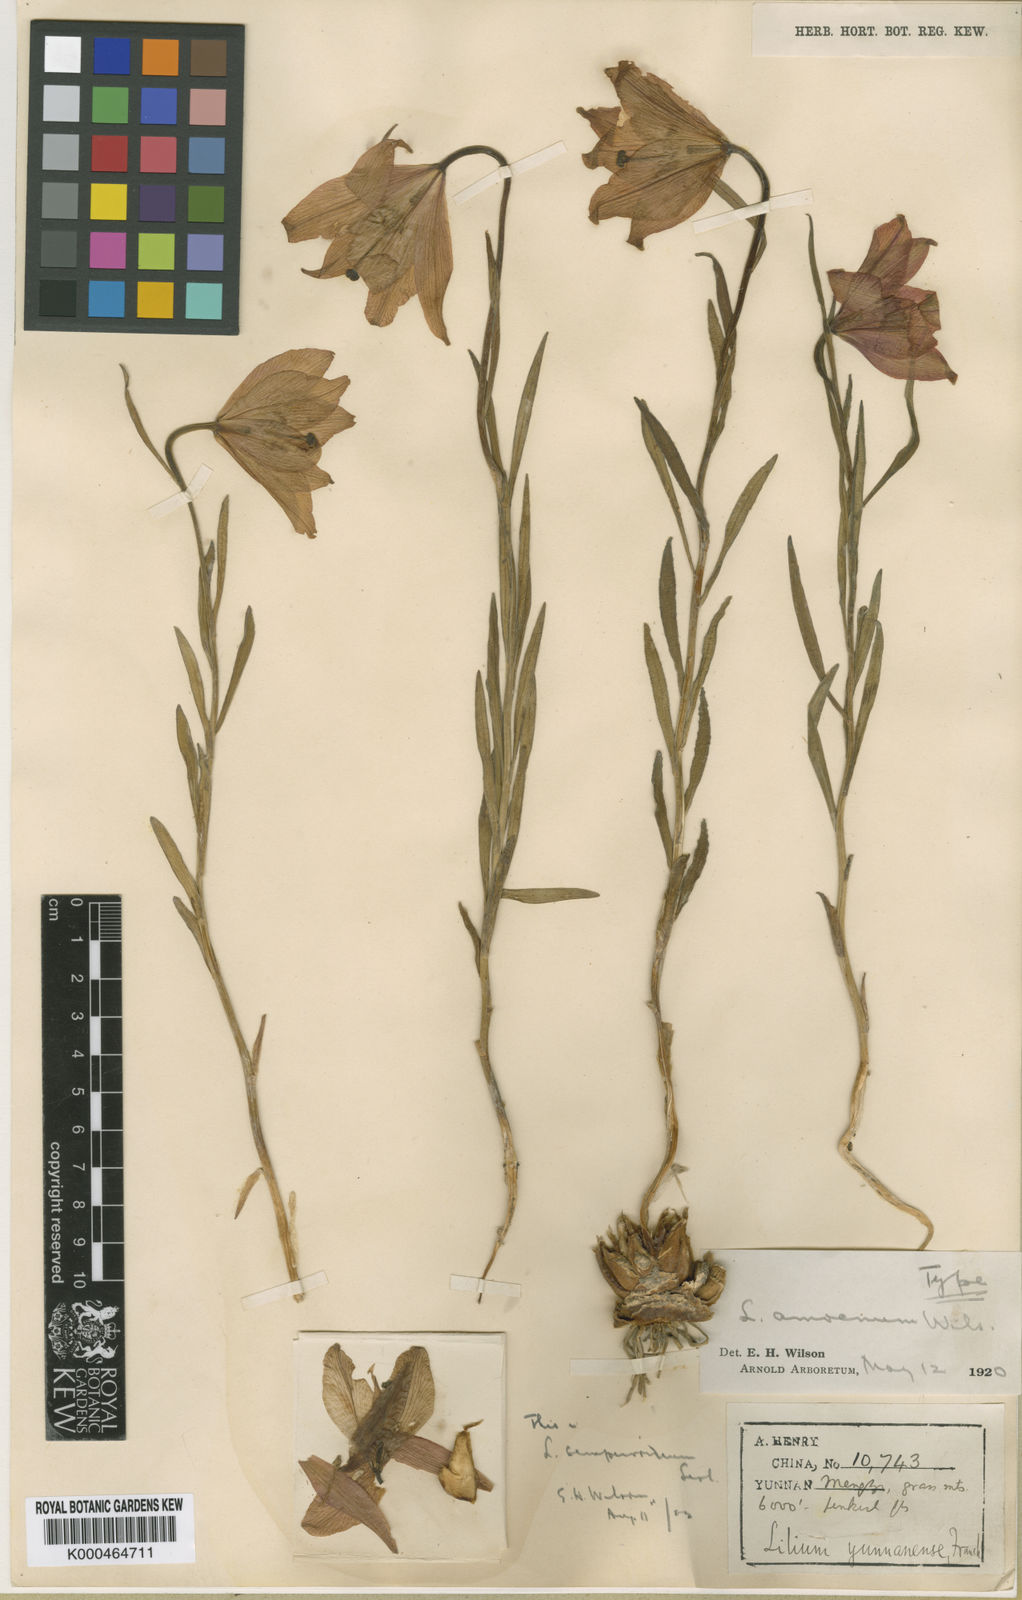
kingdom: Plantae
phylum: Tracheophyta
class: Liliopsida
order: Liliales
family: Liliaceae
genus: Lilium
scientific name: Lilium
